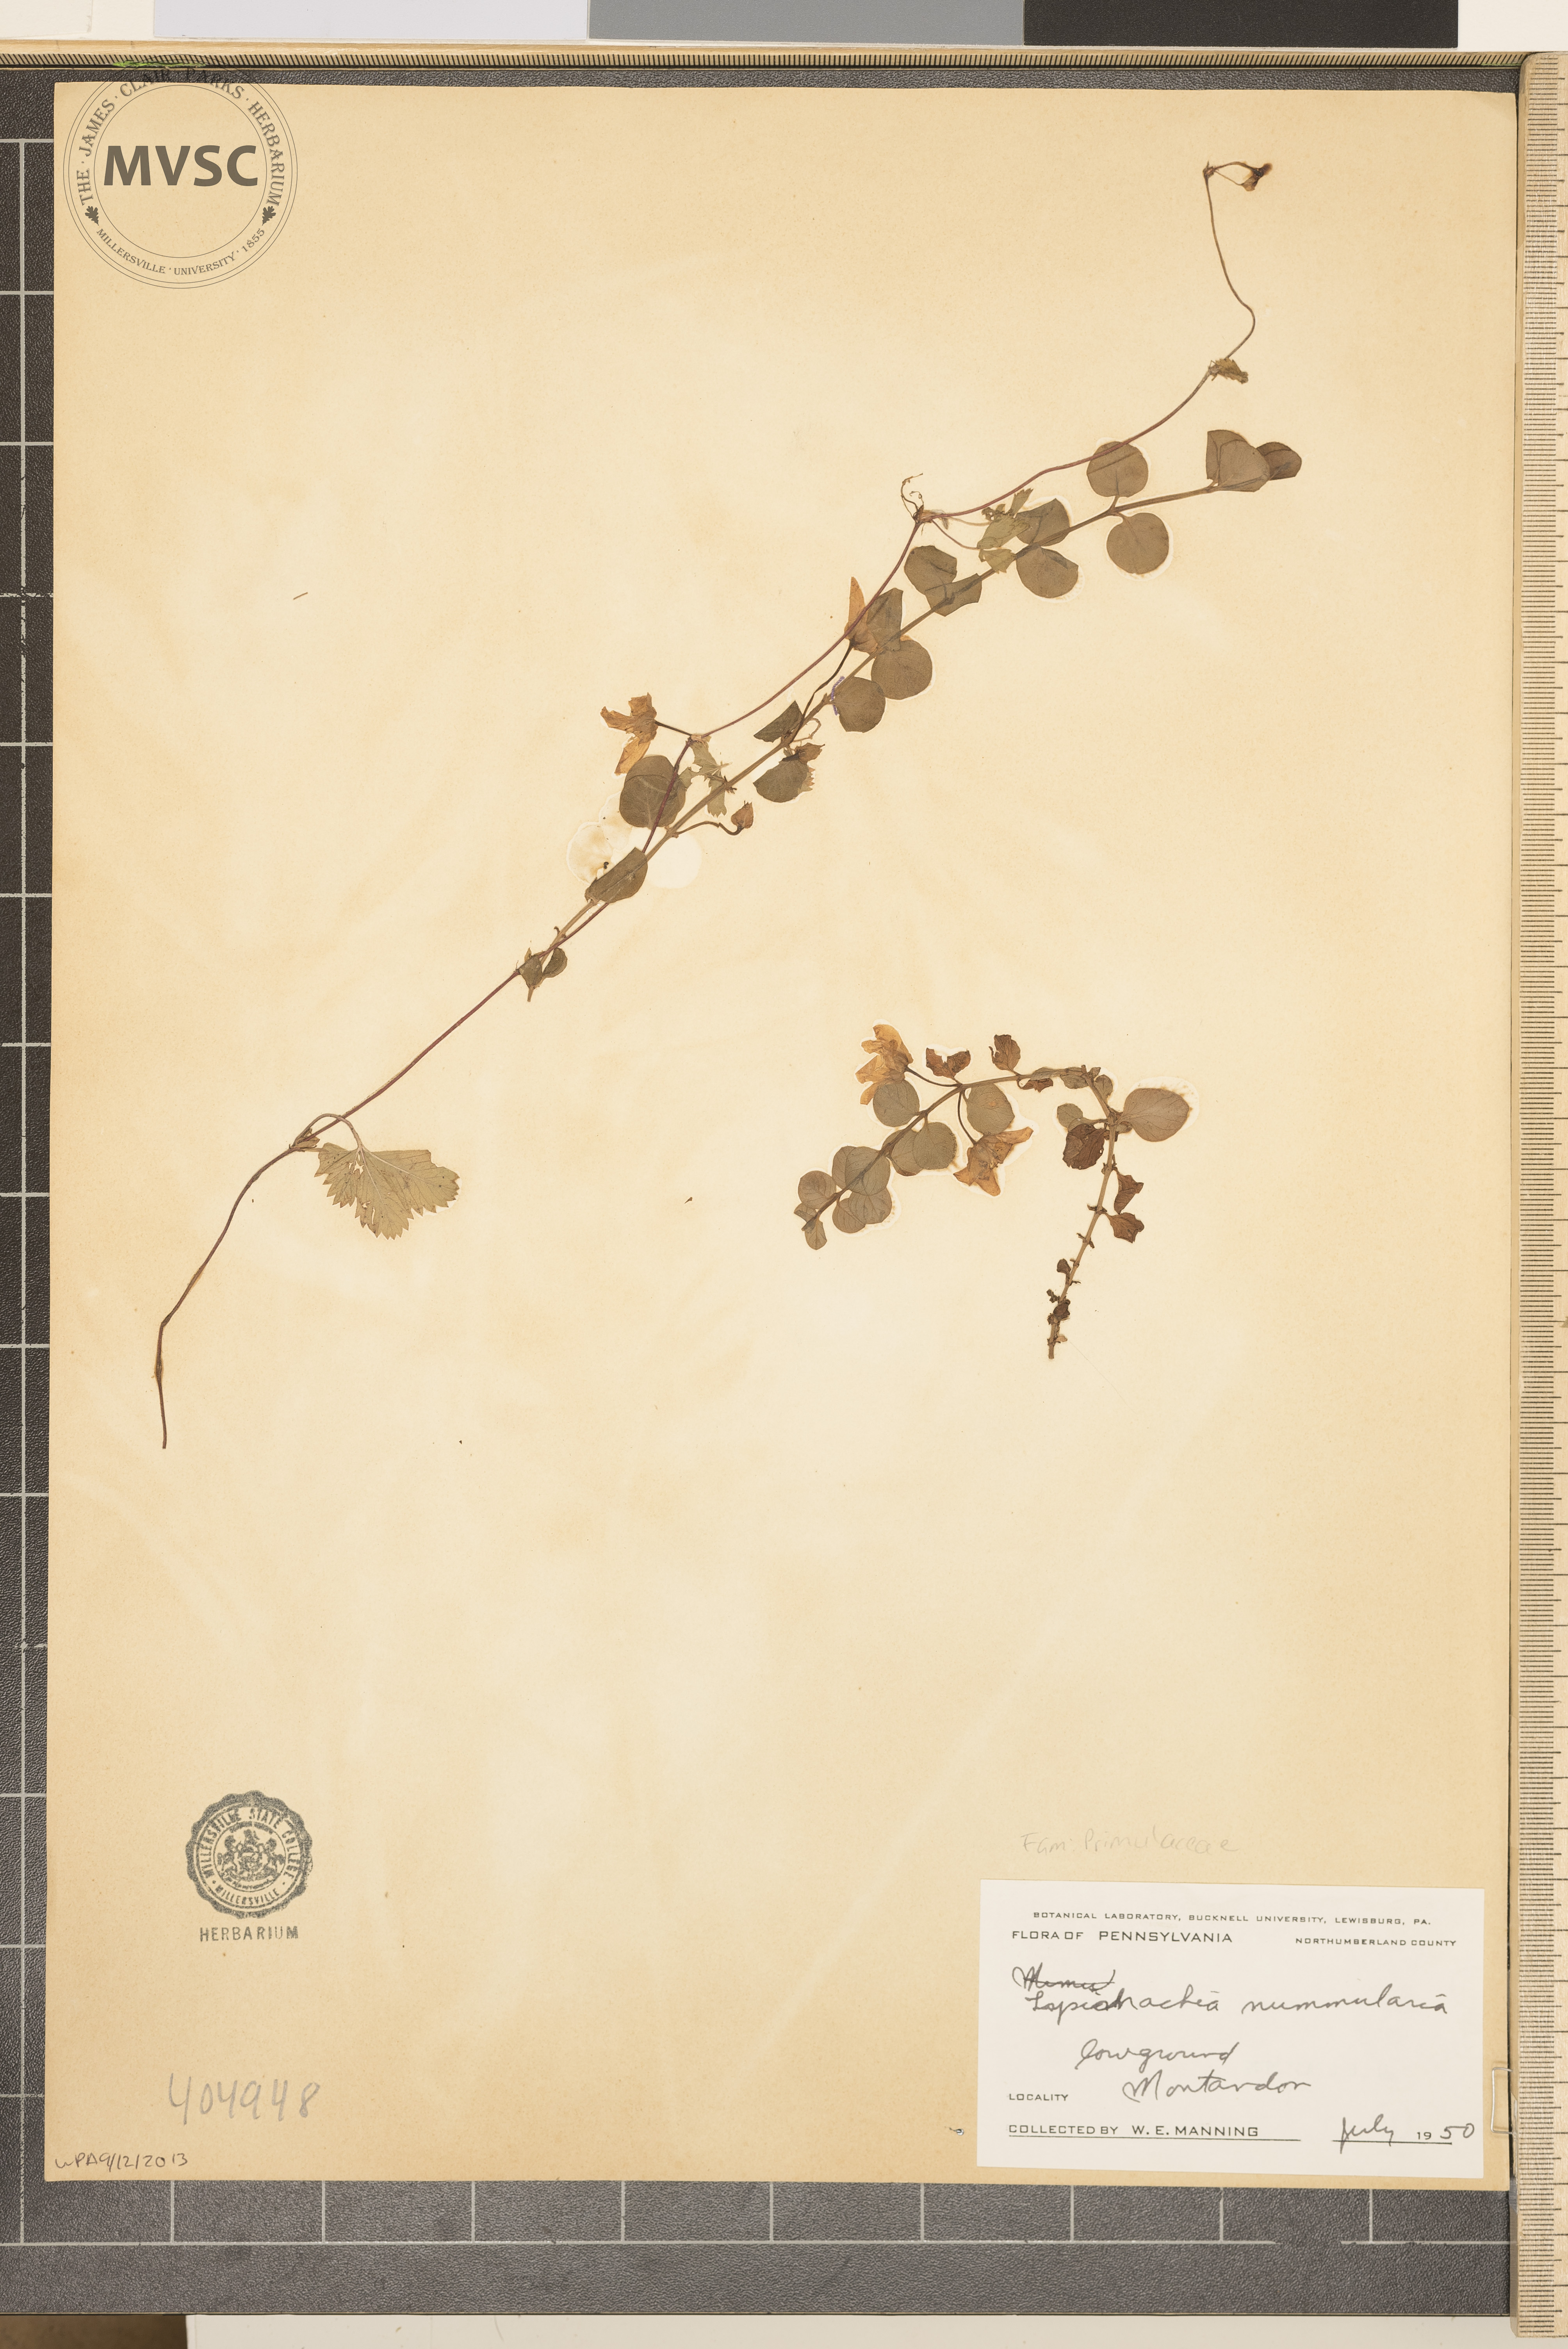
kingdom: Plantae
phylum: Tracheophyta
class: Magnoliopsida
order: Ericales
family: Primulaceae
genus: Lysimachia
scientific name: Lysimachia nummularia
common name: Moneywort
